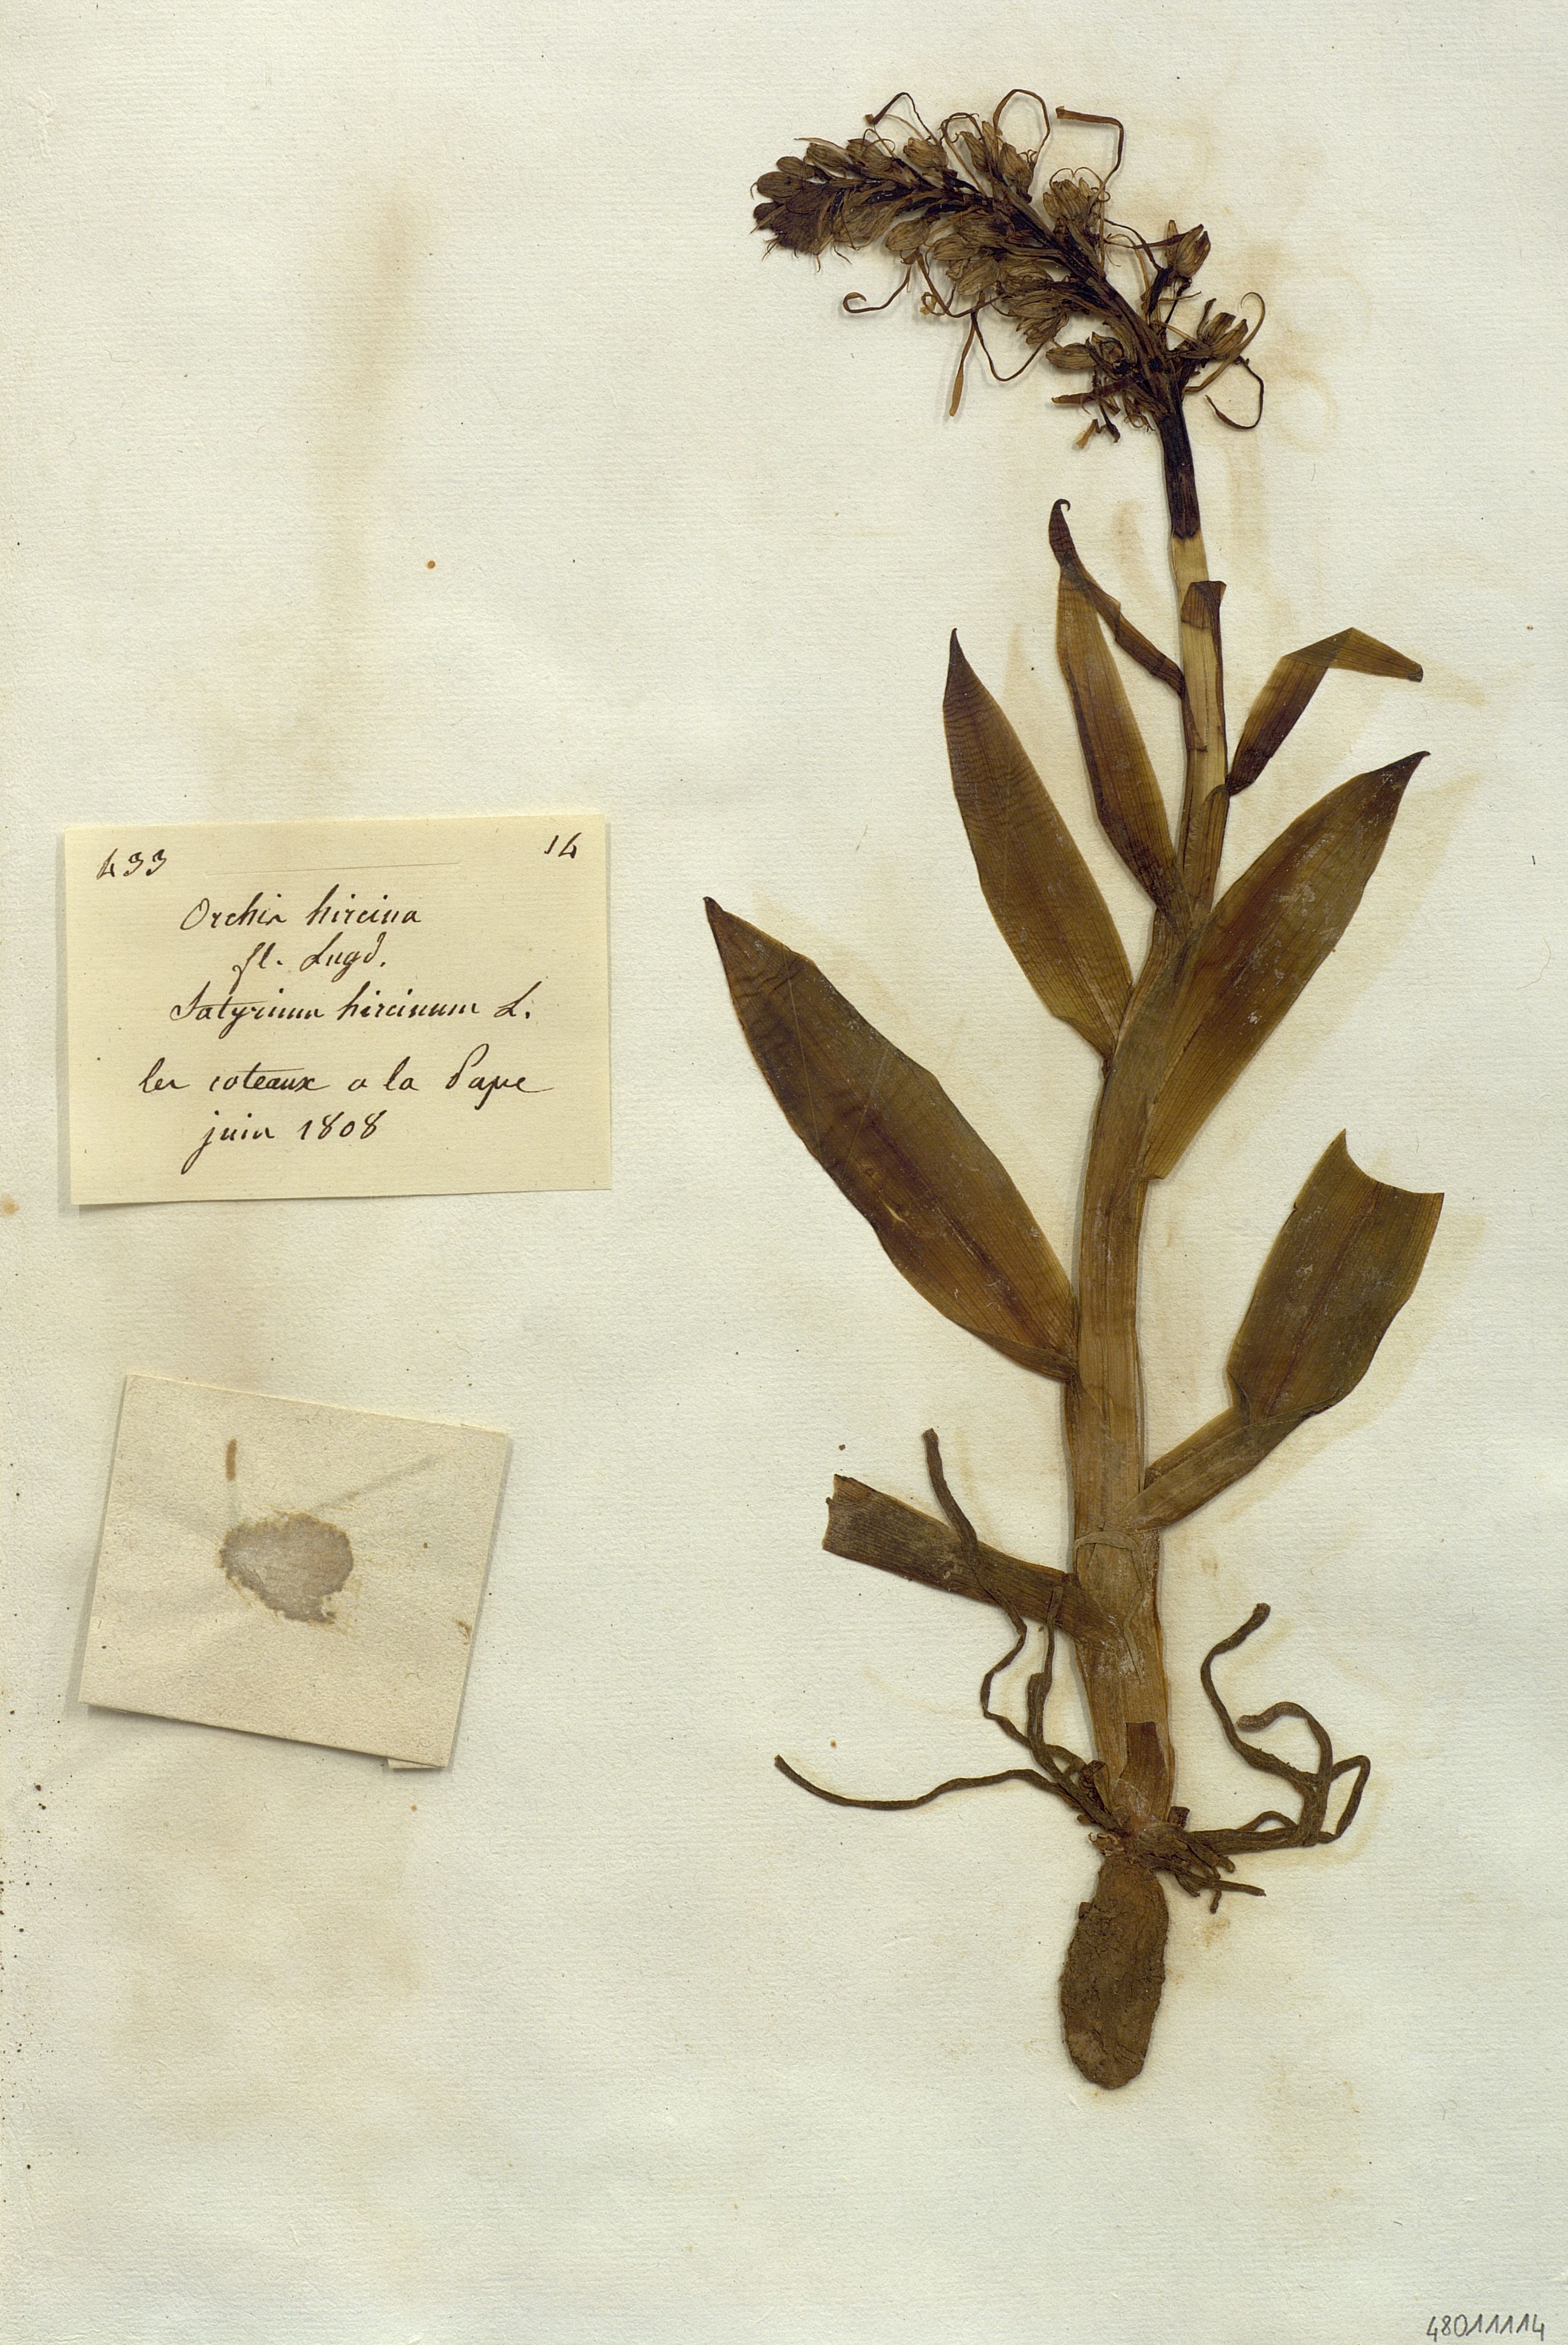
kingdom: Plantae
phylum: Tracheophyta
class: Liliopsida
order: Asparagales
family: Orchidaceae
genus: Himantoglossum
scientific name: Himantoglossum hircinum
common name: Lizard orchid
